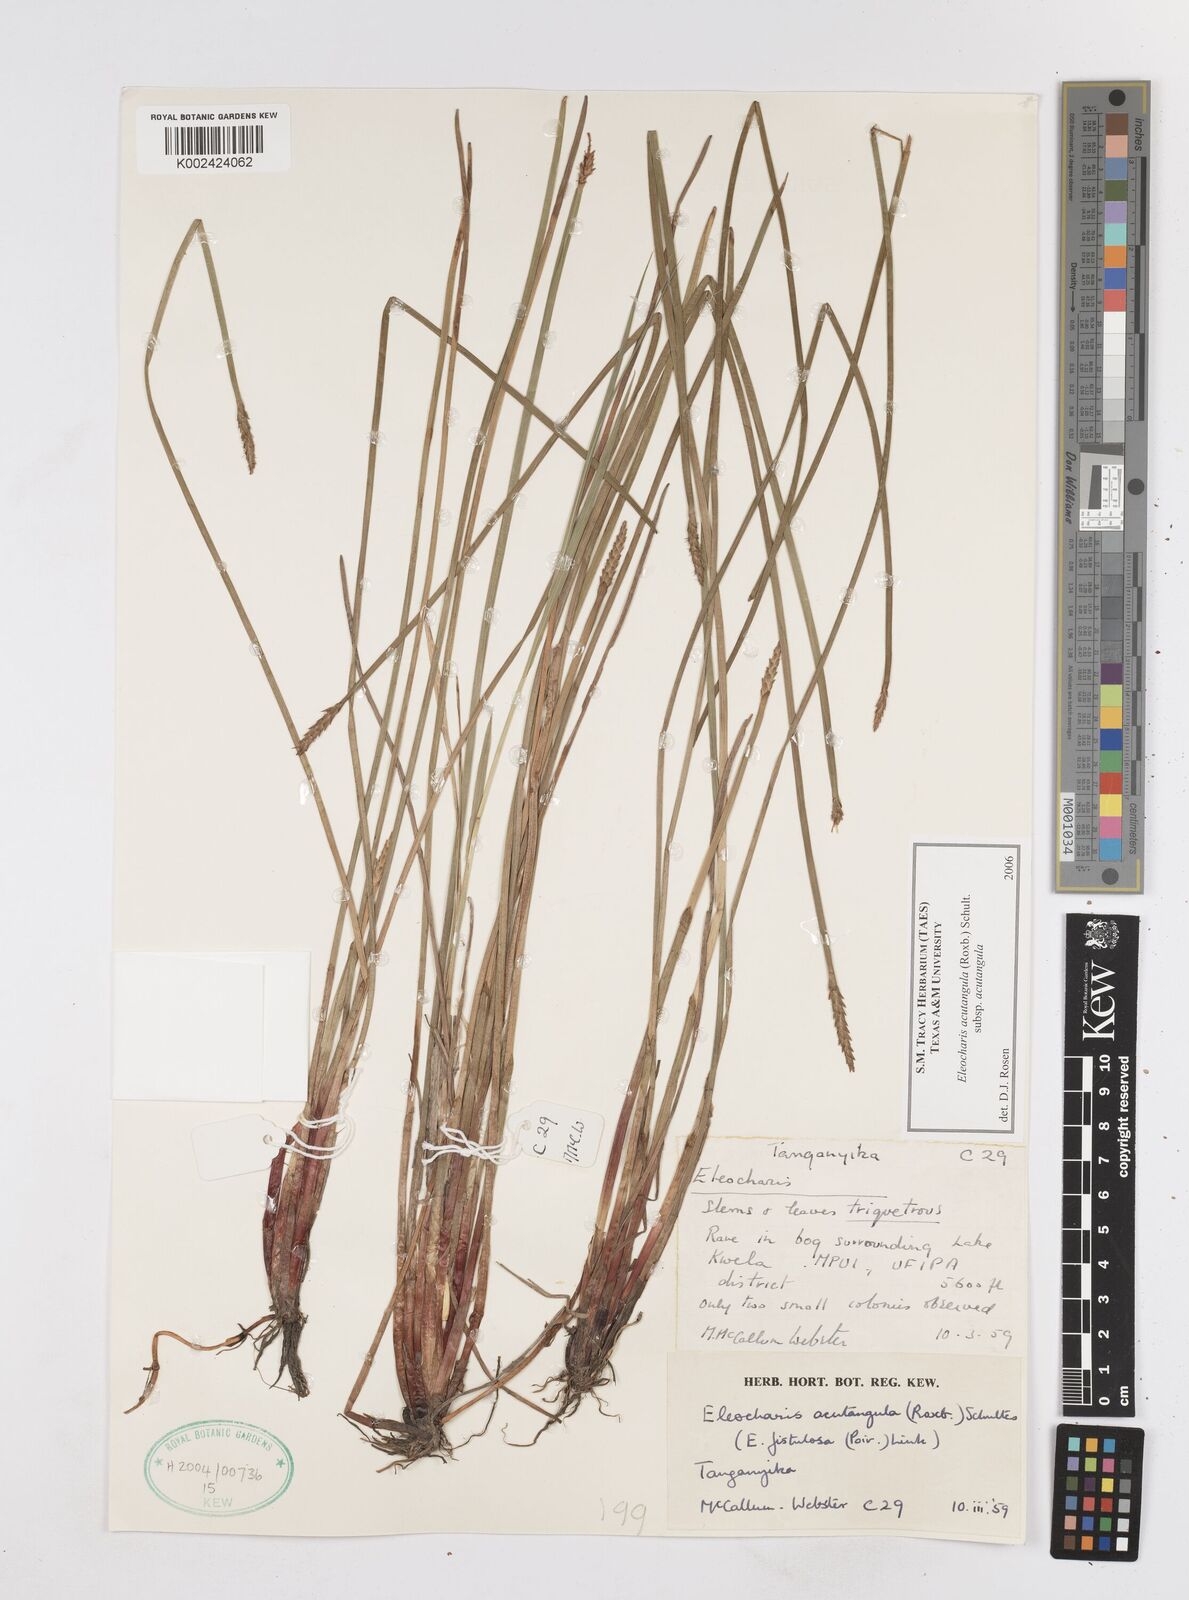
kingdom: Plantae
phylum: Tracheophyta
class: Liliopsida
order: Poales
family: Cyperaceae
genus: Eleocharis
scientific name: Eleocharis acutangula
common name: Acute spikerush
